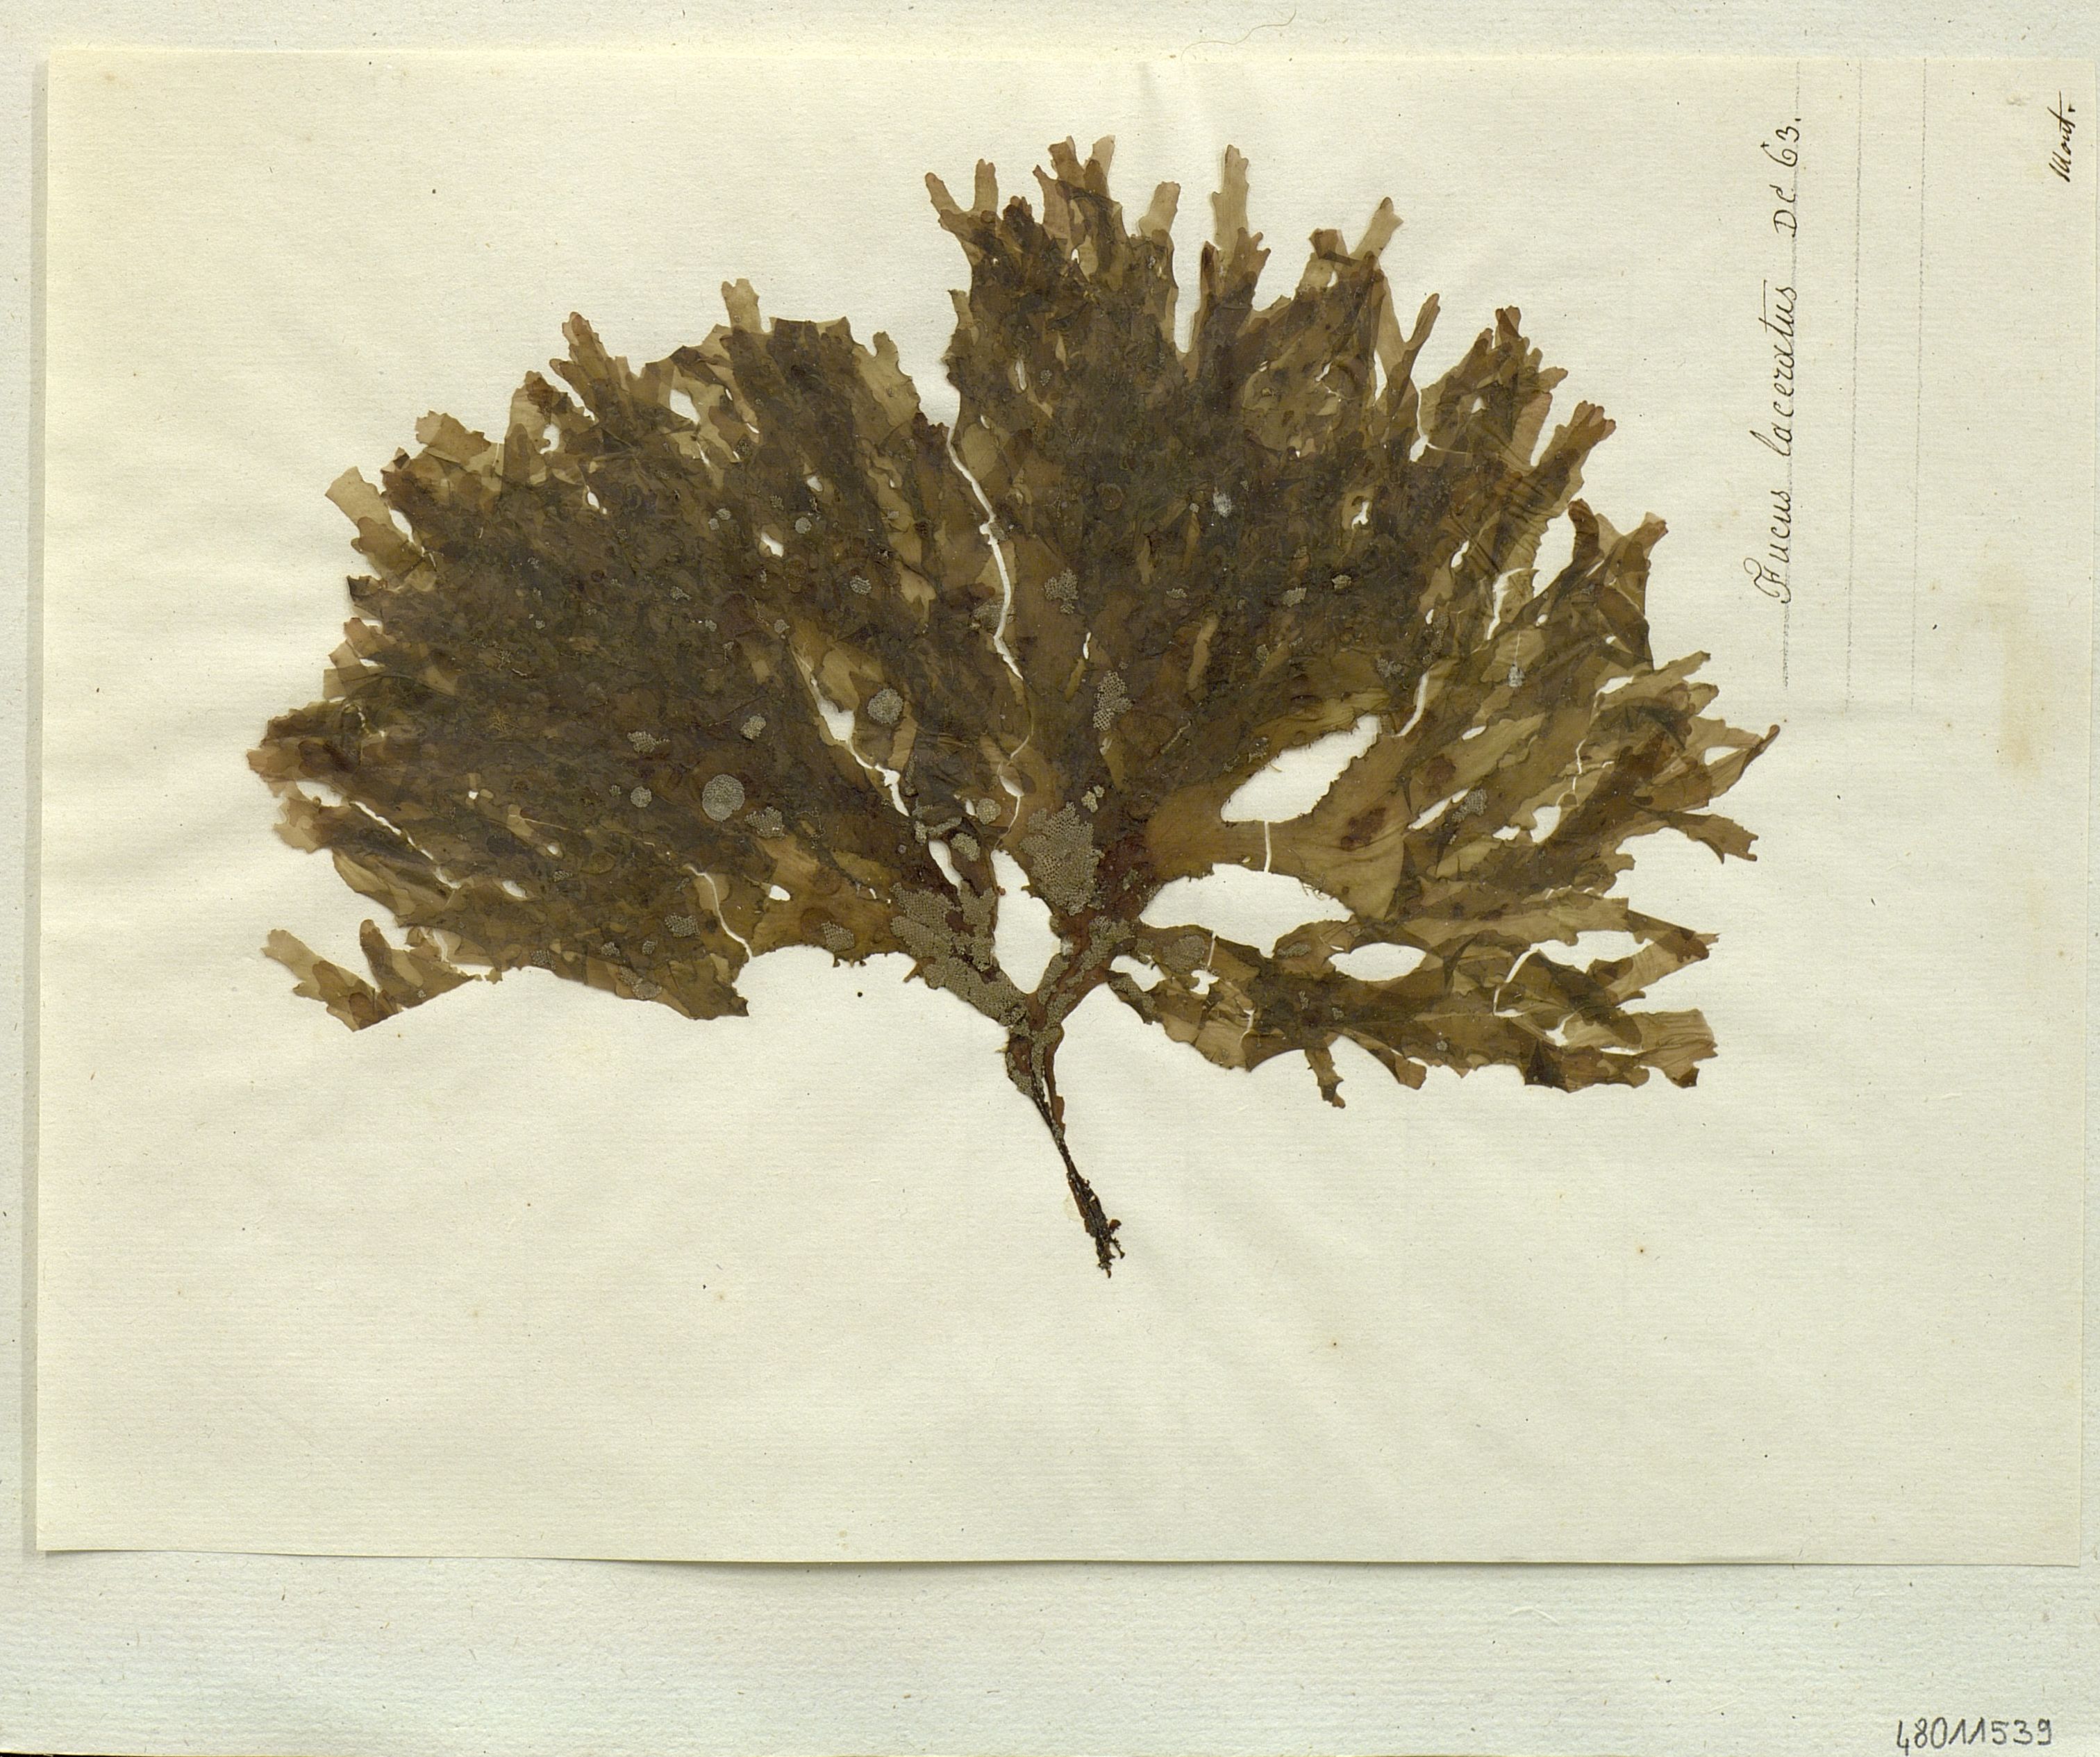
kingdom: Chromista
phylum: Ochrophyta
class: Phaeophyceae
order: Fucales
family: Fucaceae
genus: Fucus
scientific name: Fucus
